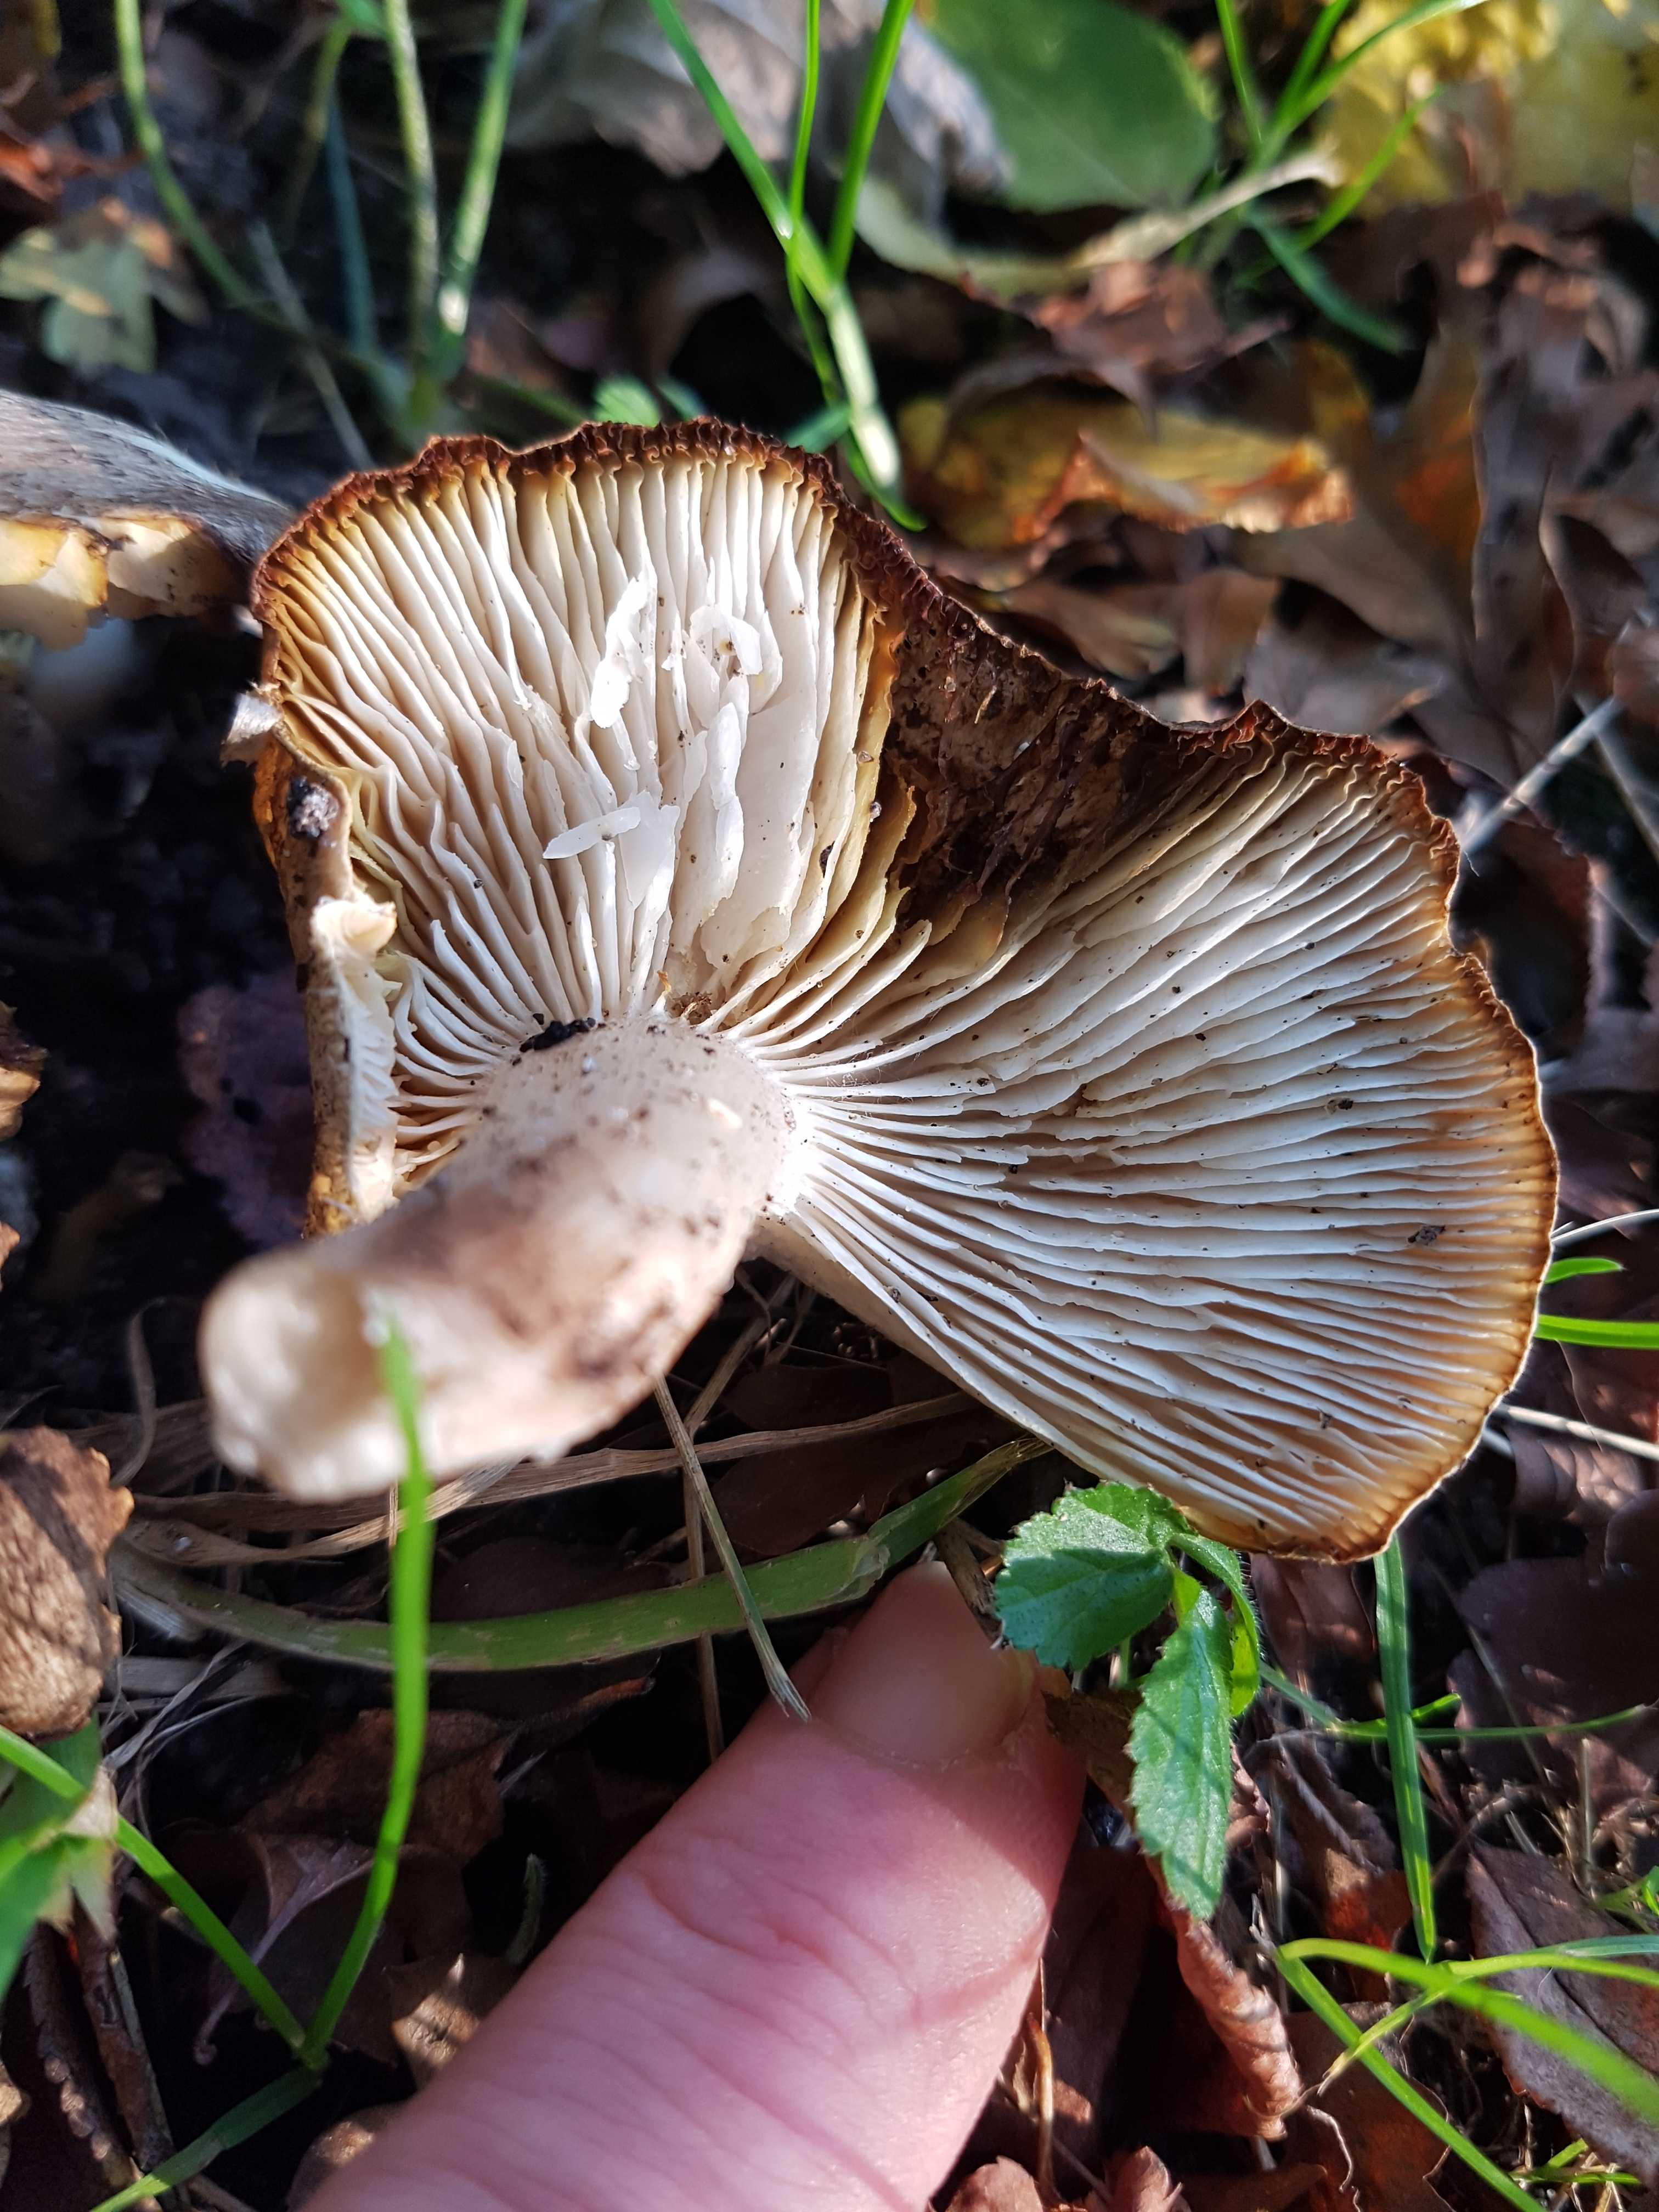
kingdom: Fungi
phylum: Basidiomycota
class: Agaricomycetes
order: Agaricales
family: Tricholomataceae
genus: Tricholoma
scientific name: Tricholoma
